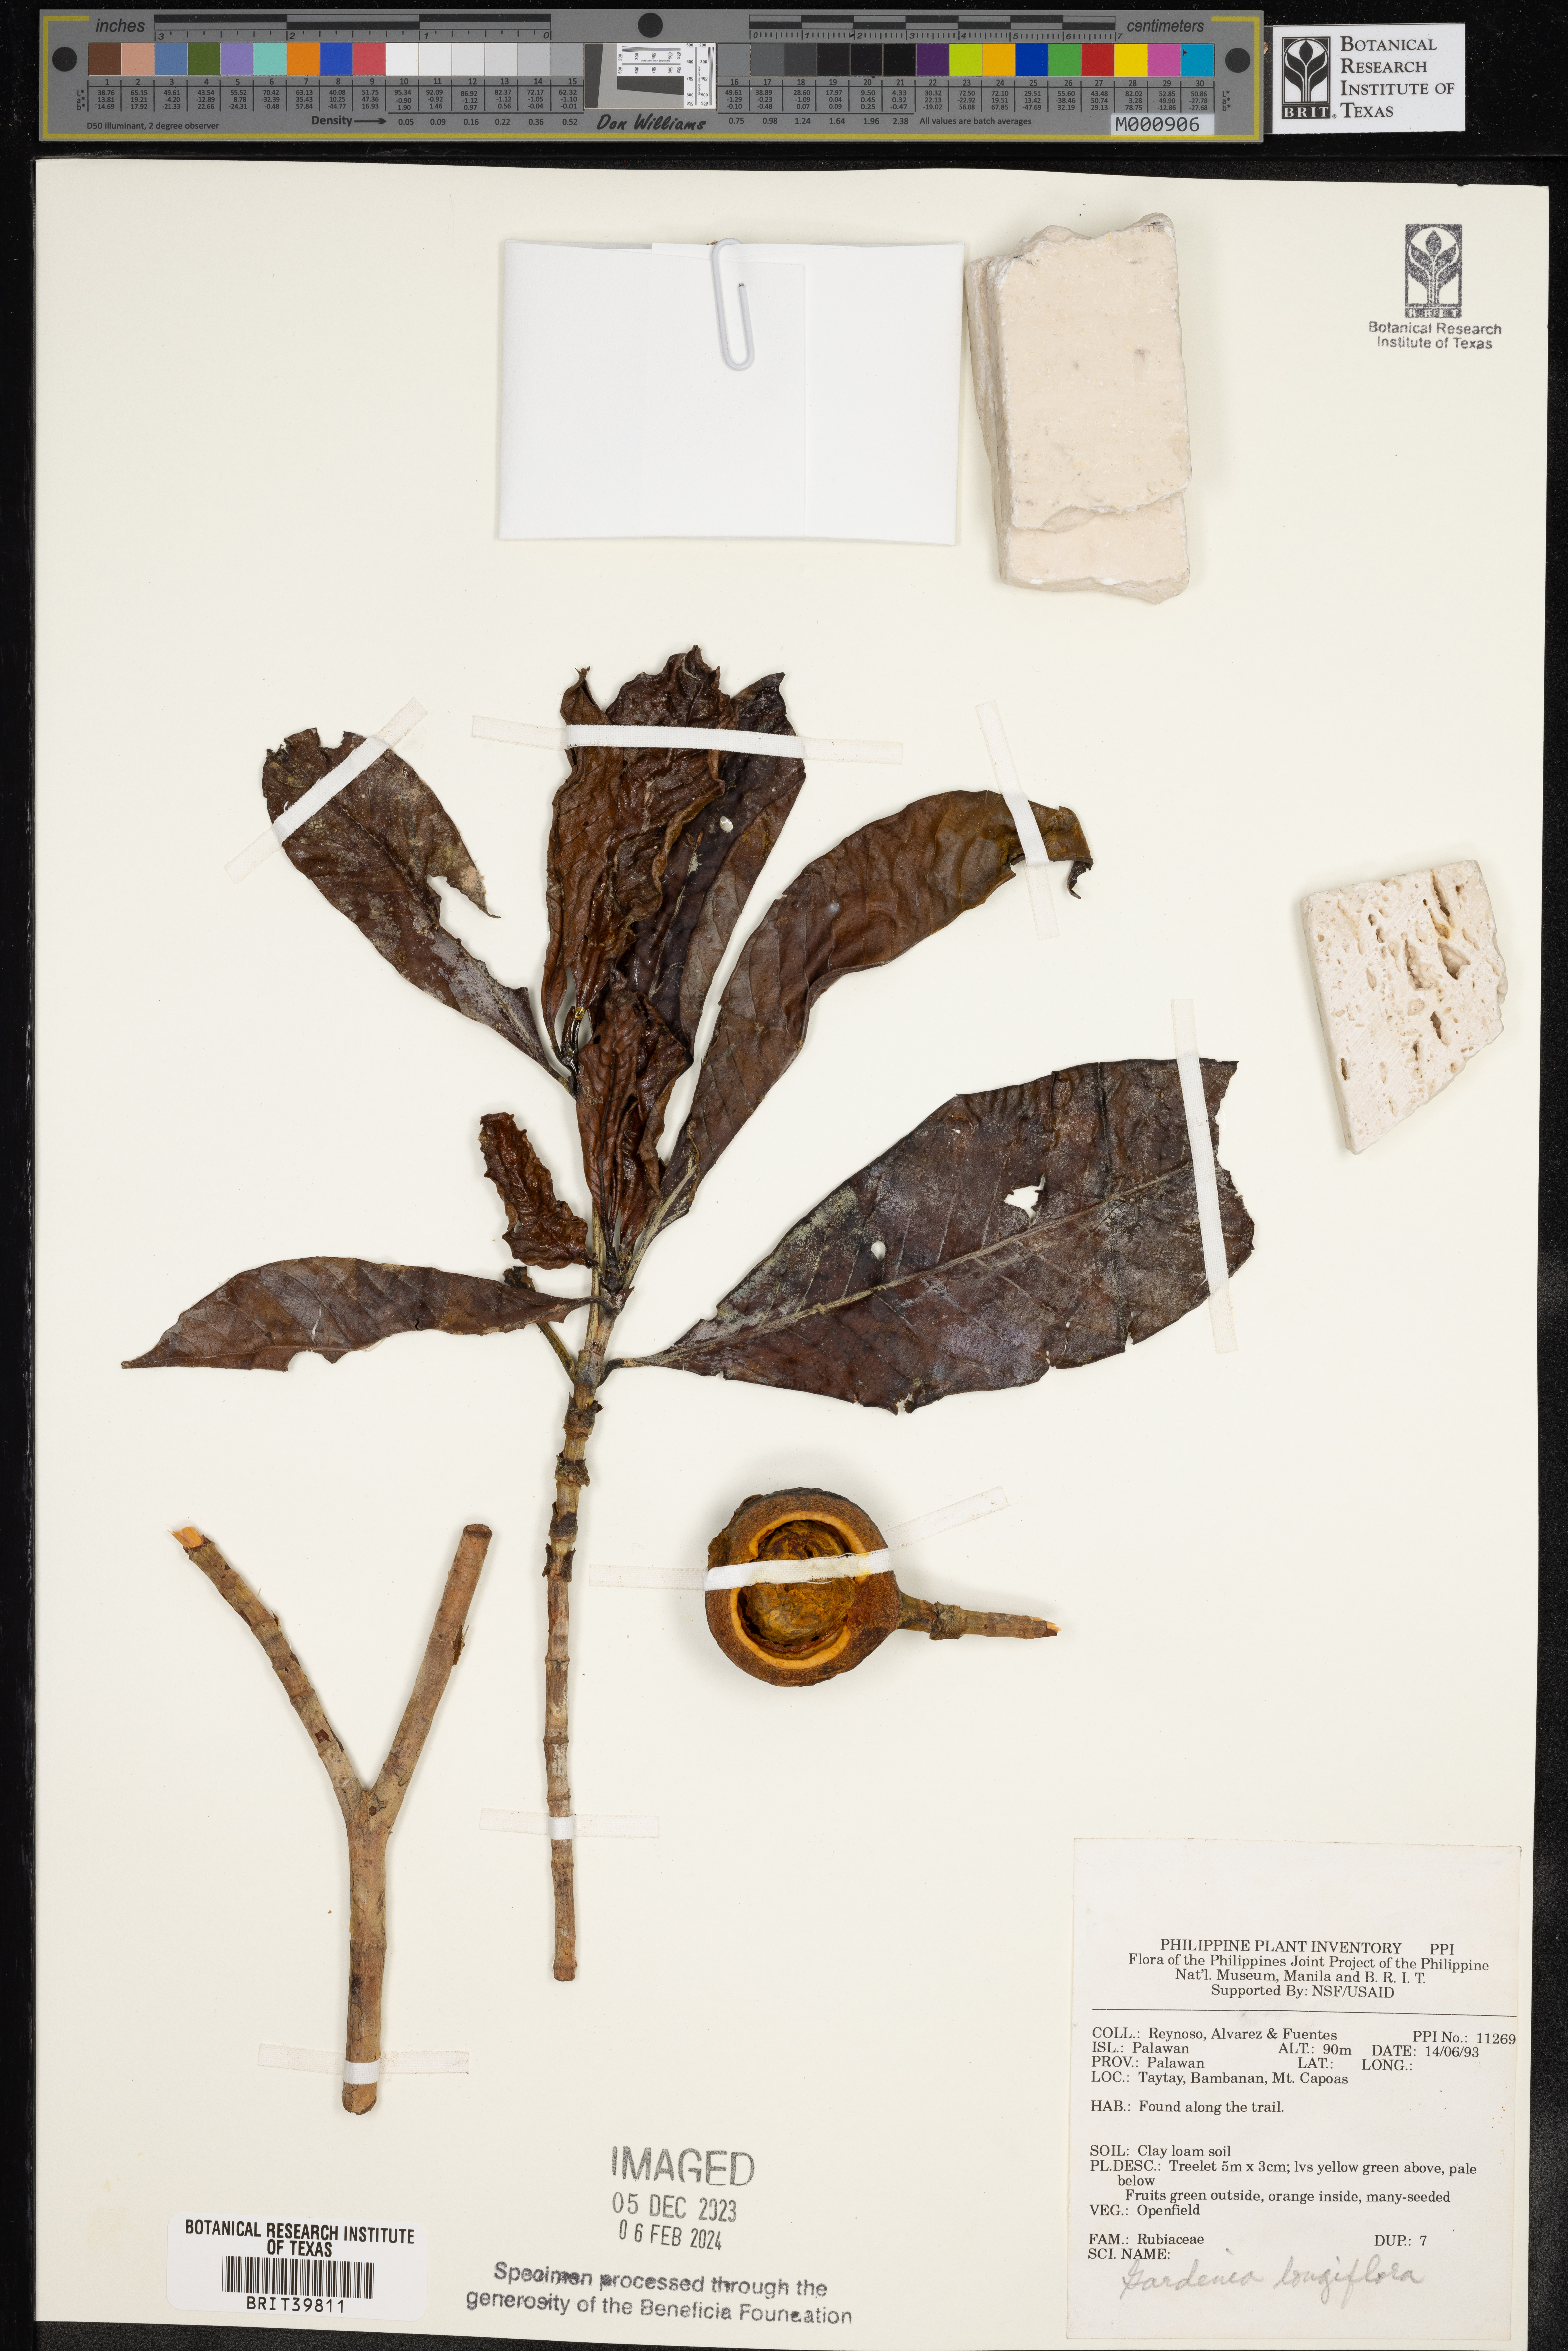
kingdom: Plantae
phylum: Tracheophyta
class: Magnoliopsida
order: Gentianales
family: Rubiaceae
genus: Rosenbergiodendron
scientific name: Rosenbergiodendron longiflorum
